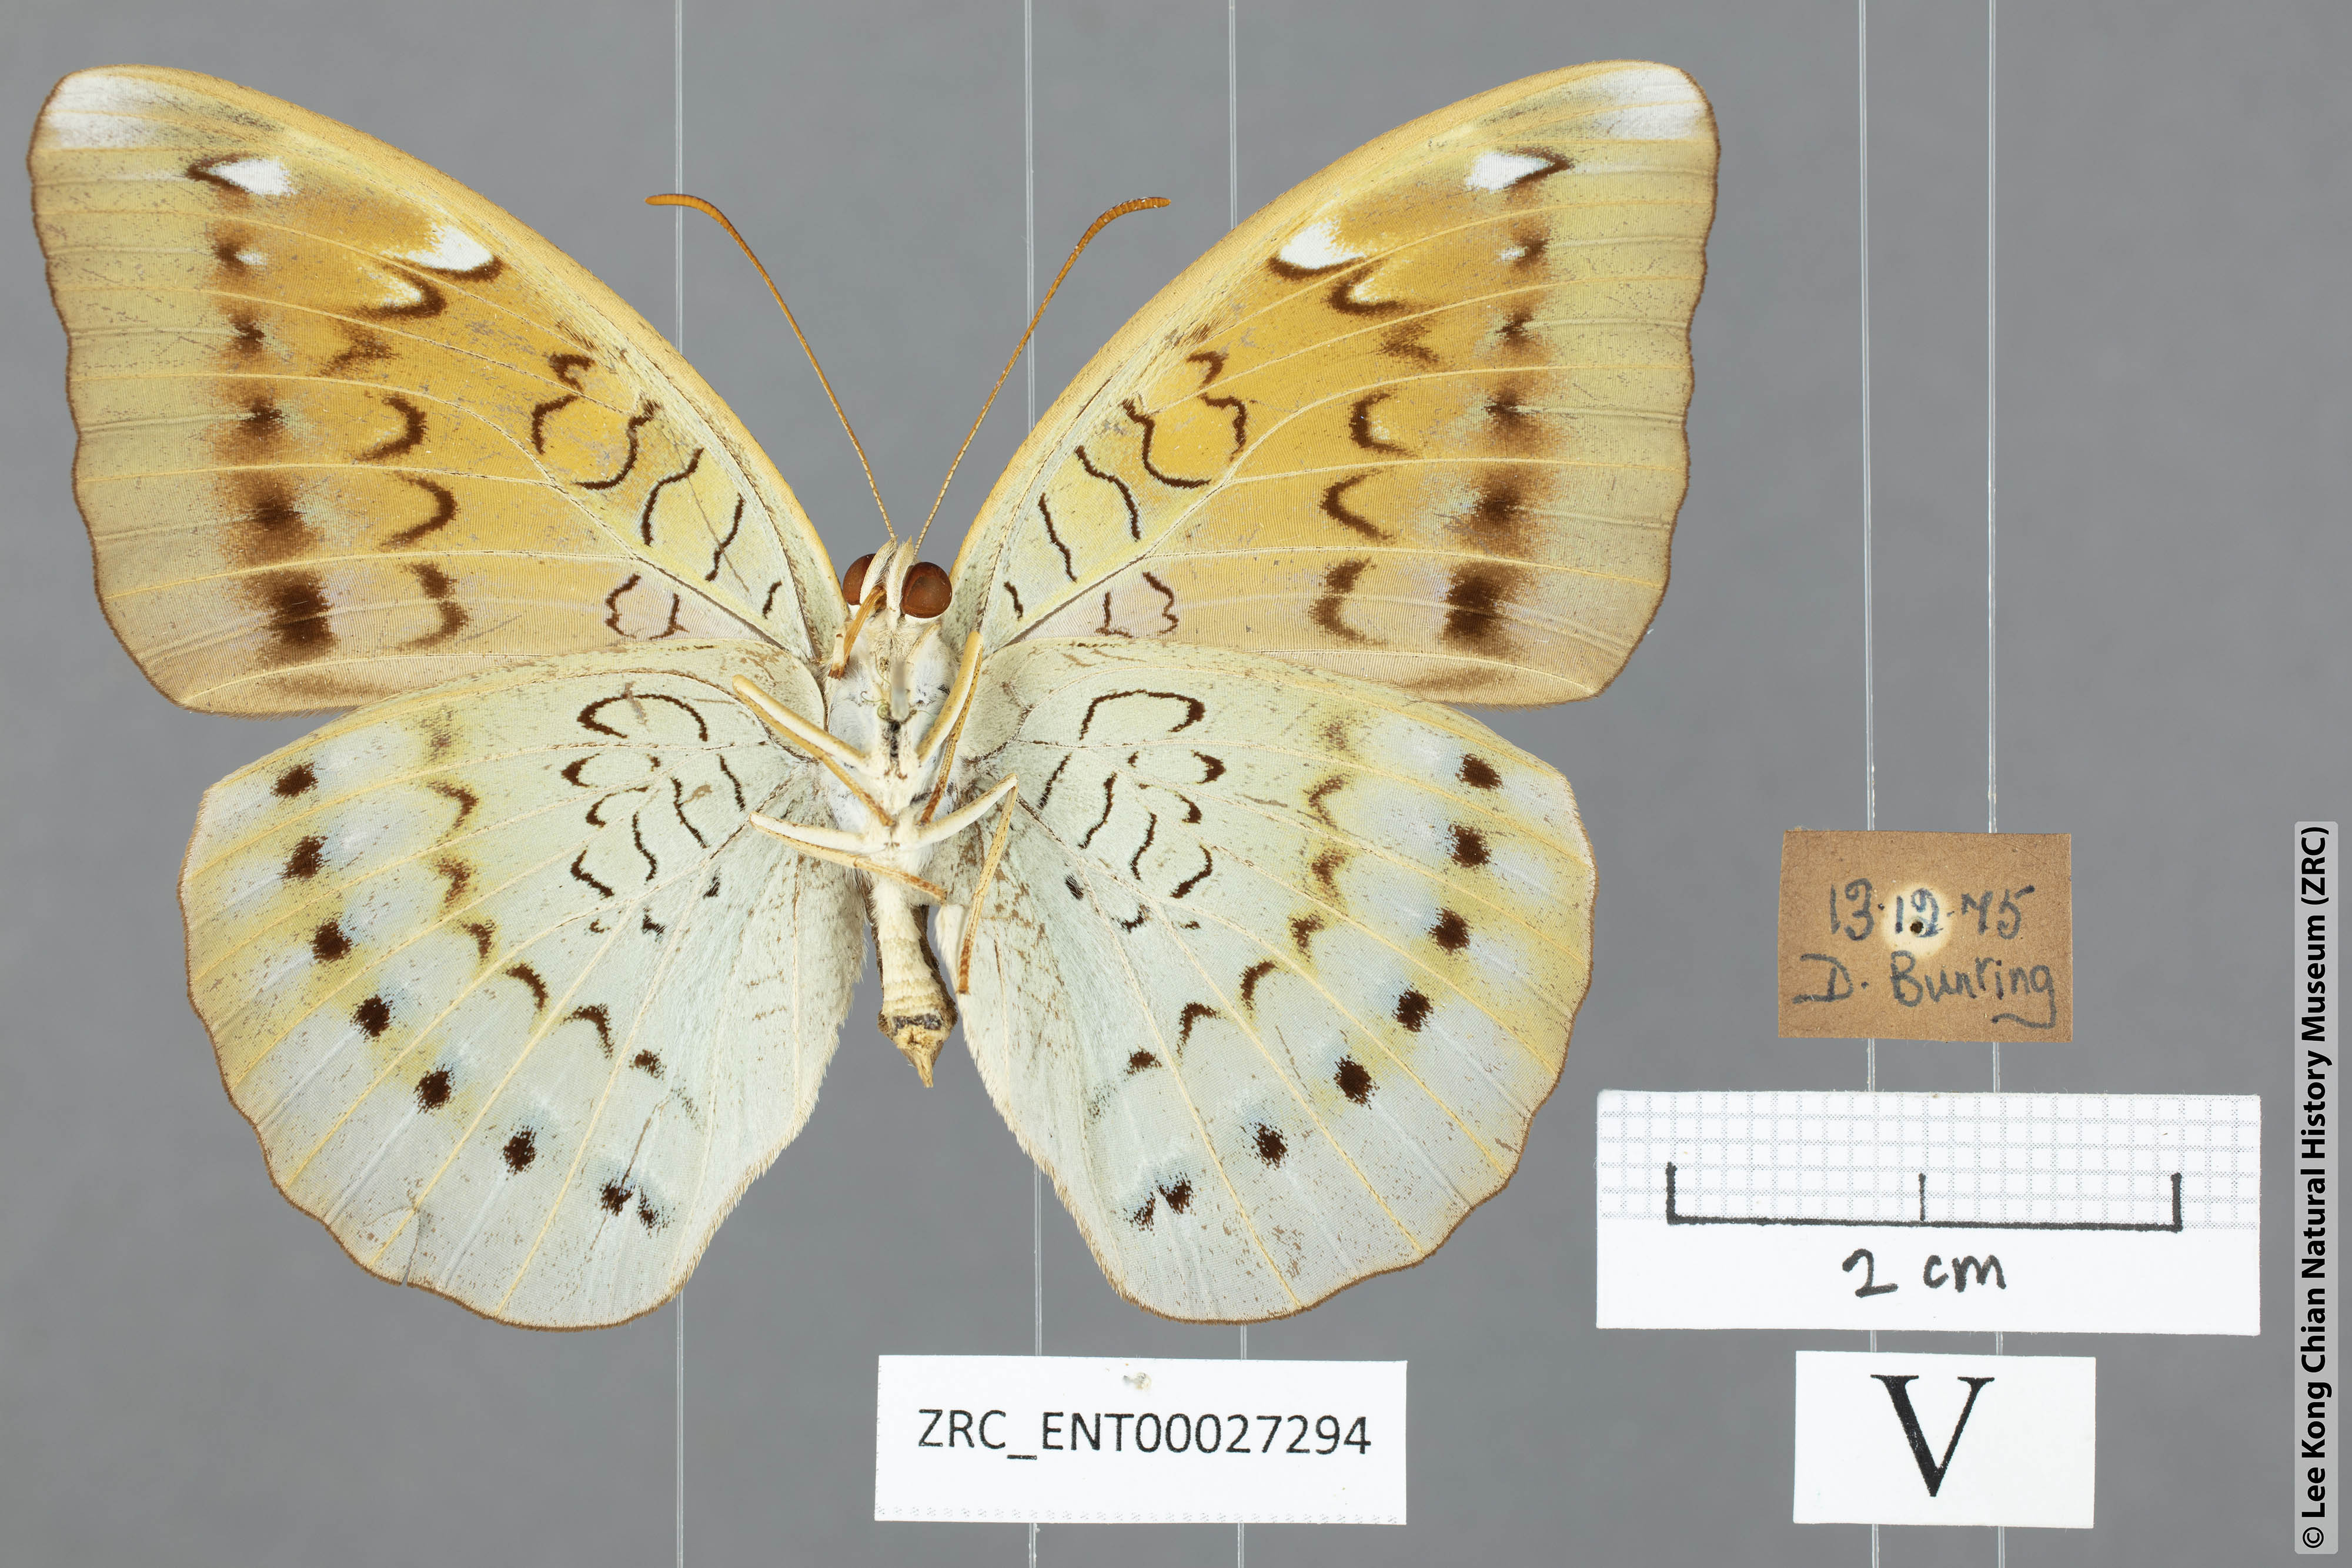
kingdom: Animalia
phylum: Arthropoda
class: Insecta
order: Lepidoptera
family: Nymphalidae
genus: Tanaecia
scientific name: Tanaecia julii
